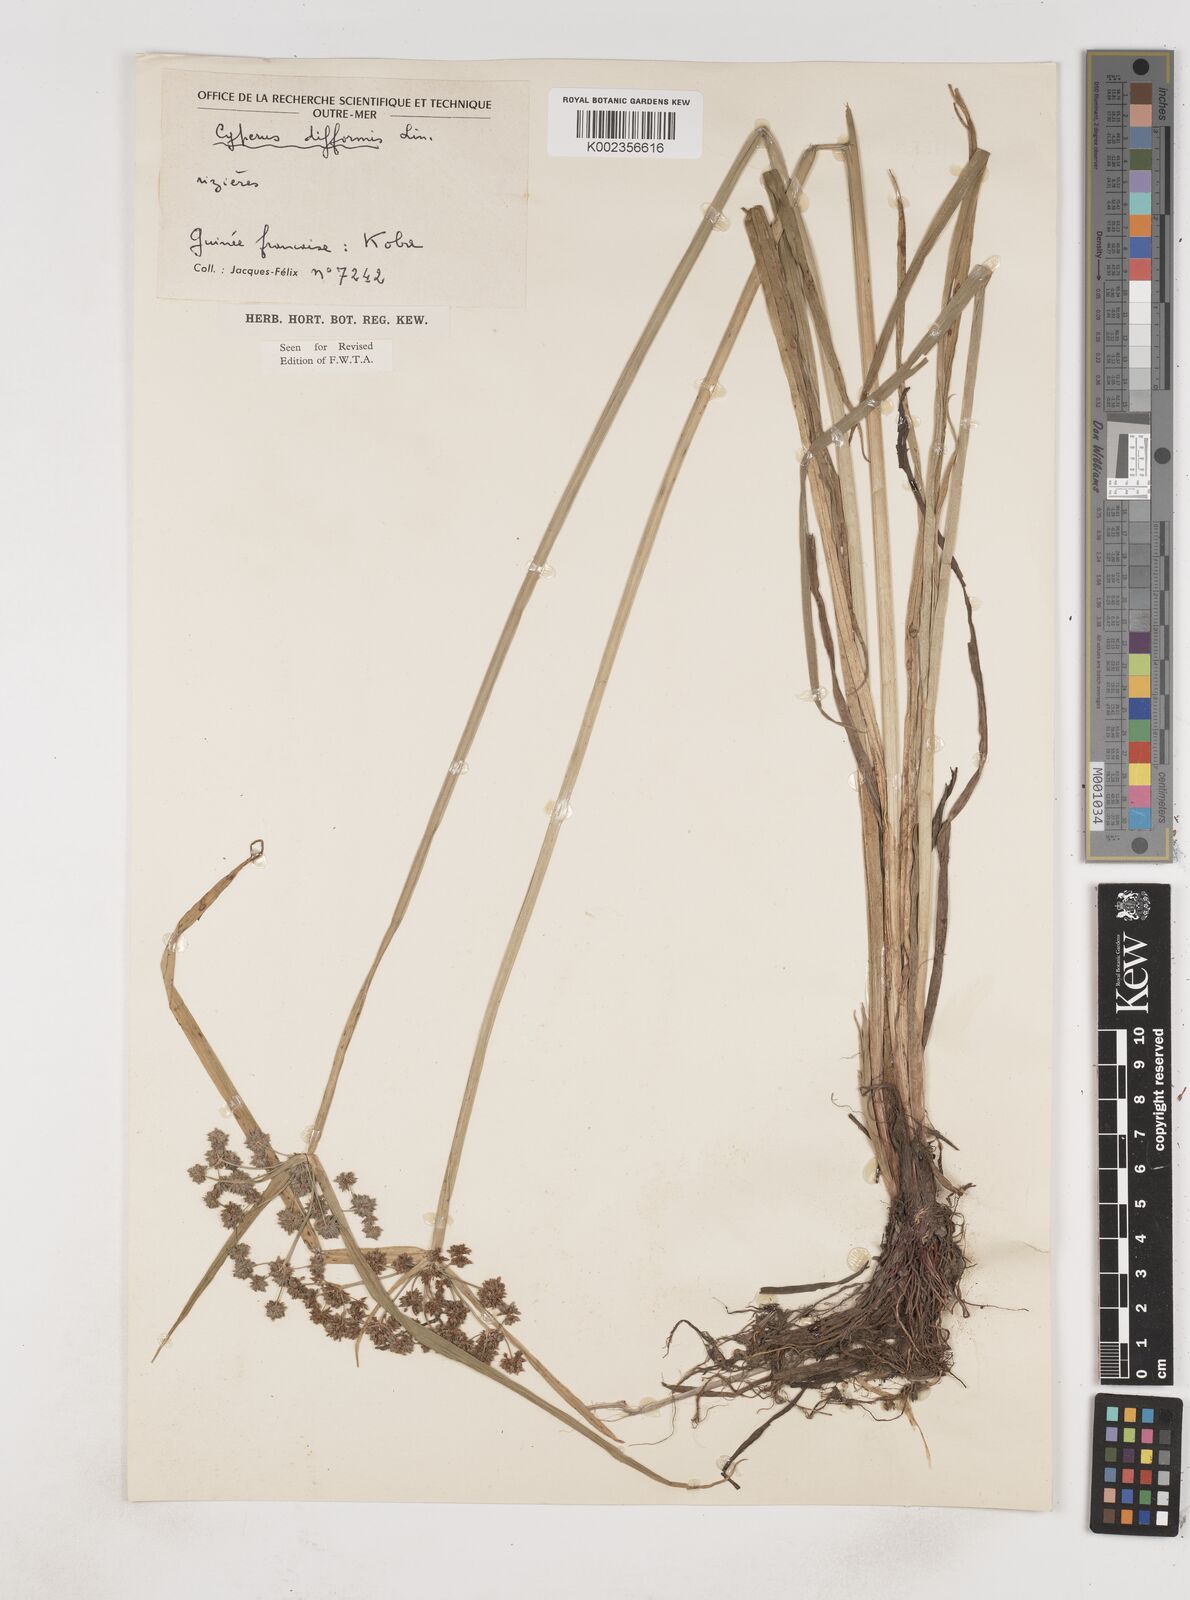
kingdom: Plantae
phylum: Tracheophyta
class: Liliopsida
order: Poales
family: Cyperaceae
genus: Cyperus
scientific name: Cyperus difformis
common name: Variable flatsedge
